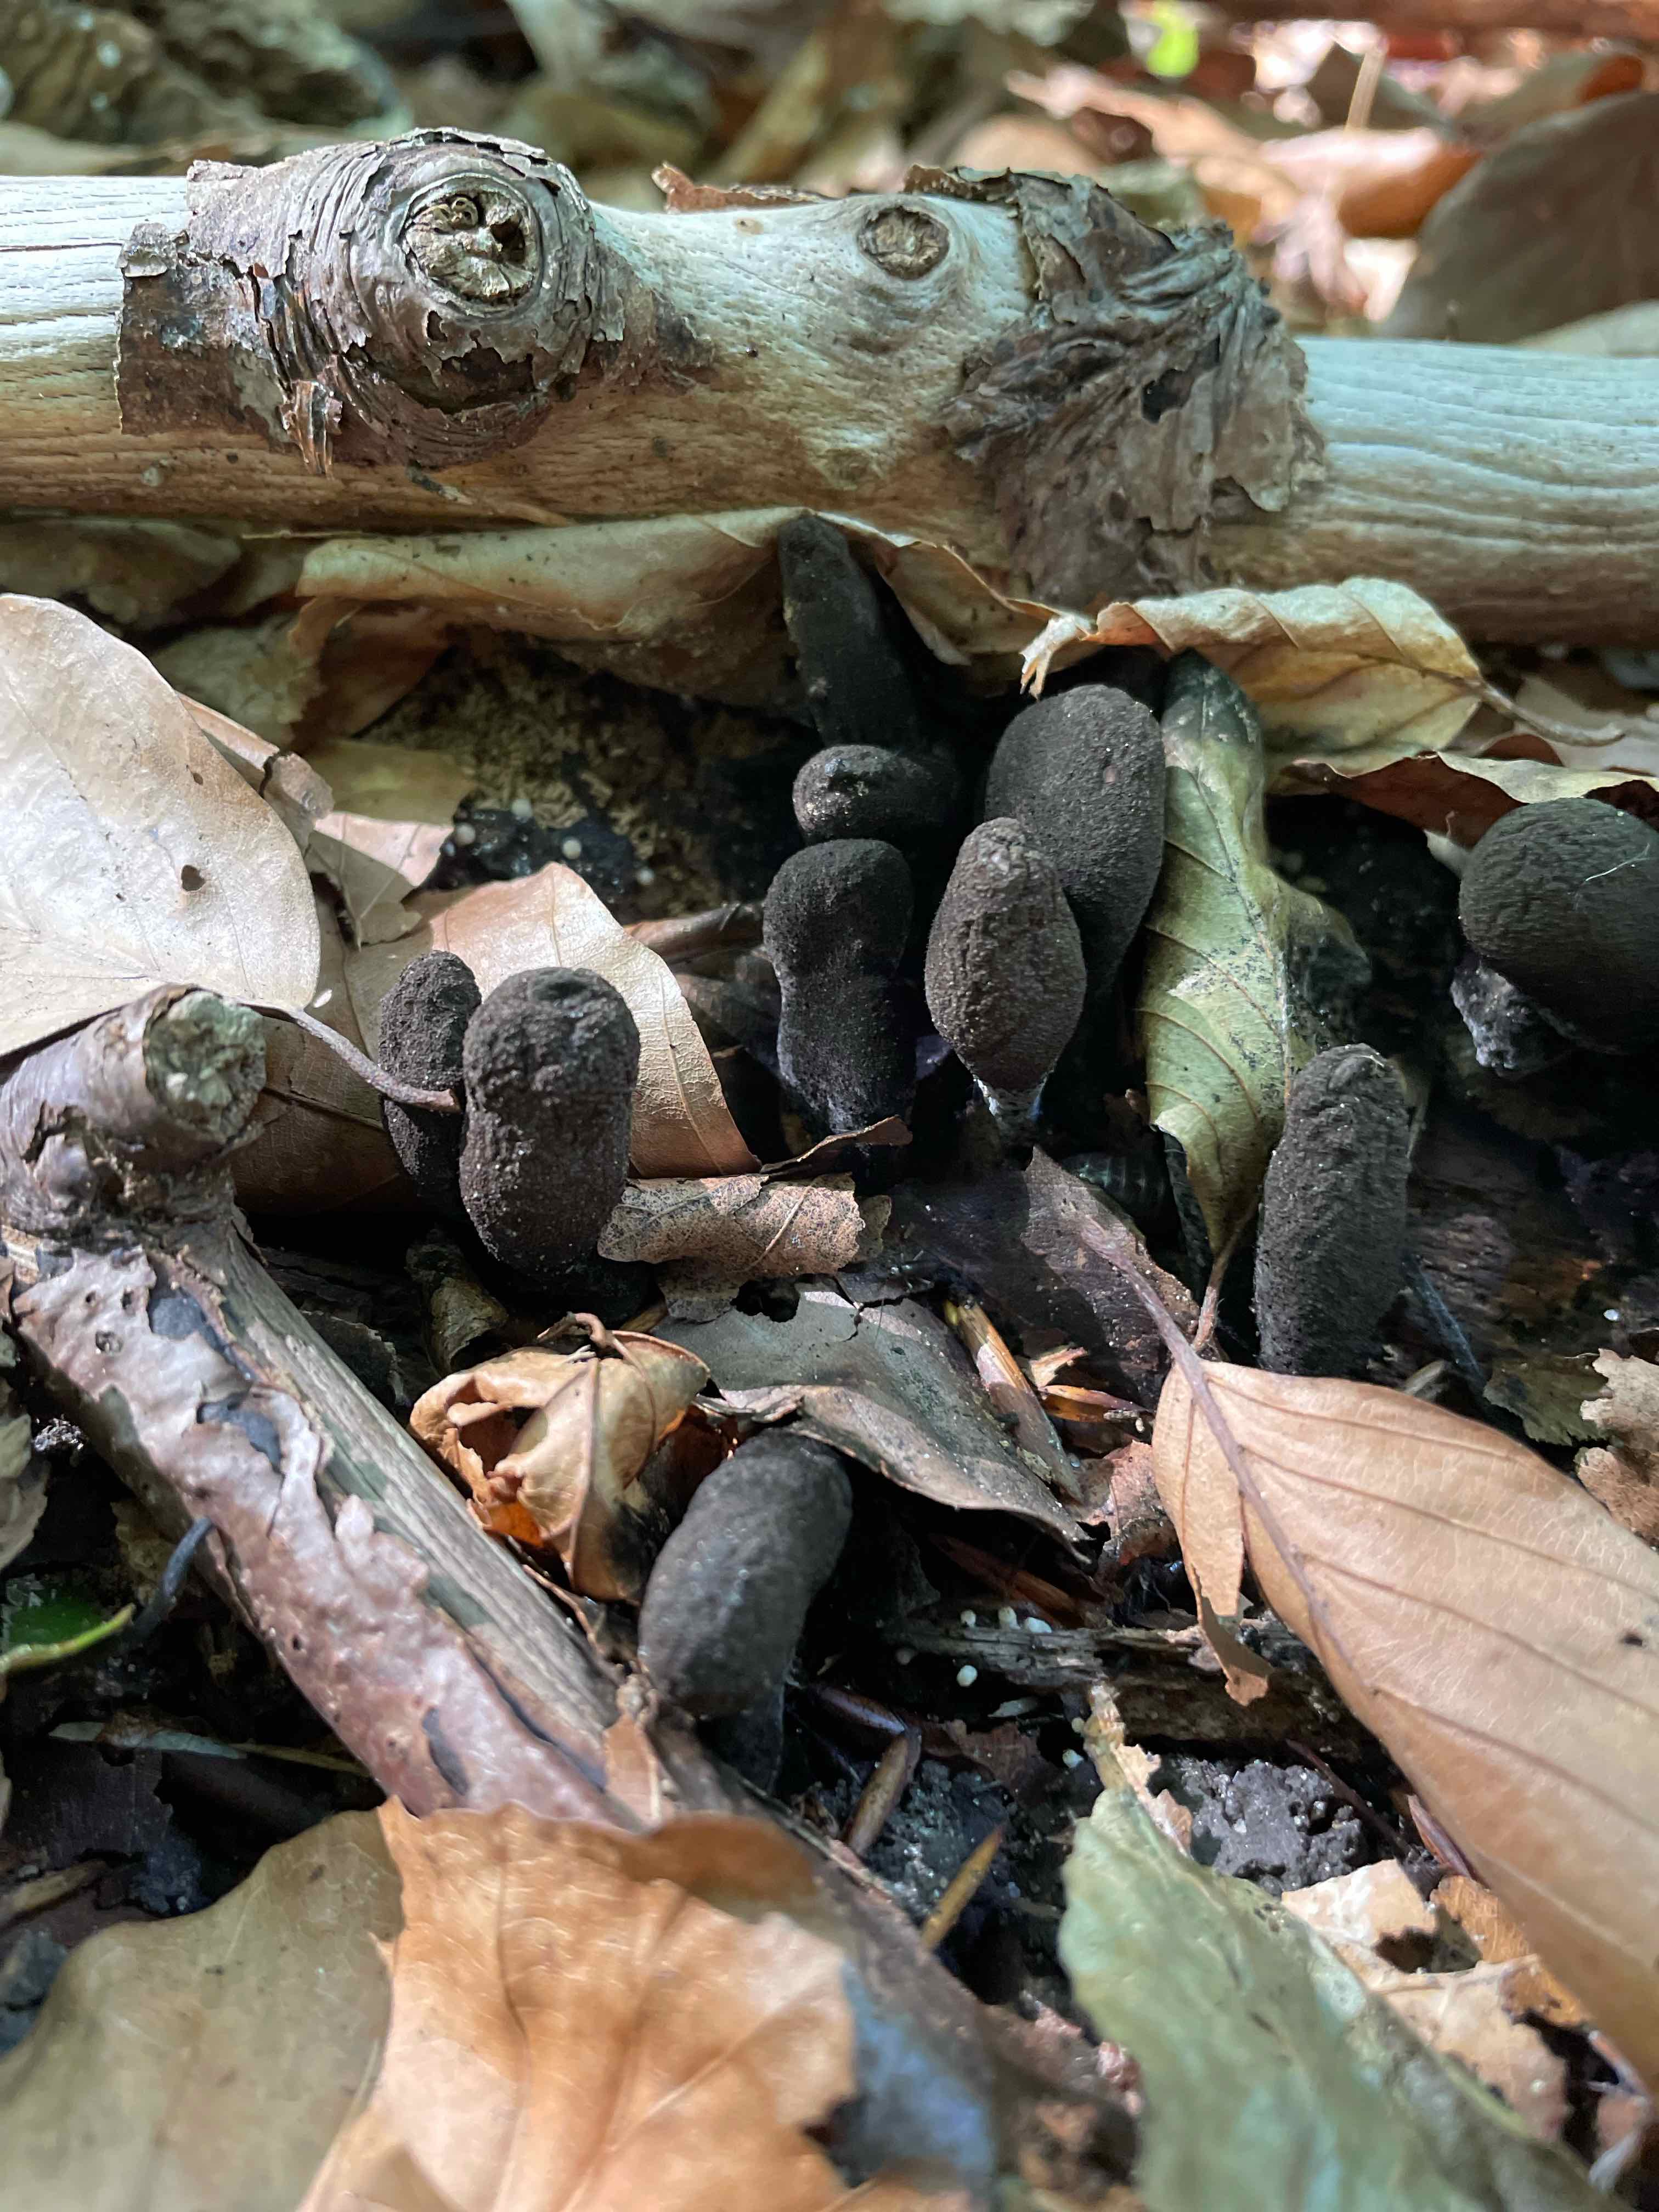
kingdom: Fungi
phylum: Ascomycota
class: Sordariomycetes
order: Xylariales
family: Xylariaceae
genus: Xylaria
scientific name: Xylaria polymorpha
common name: kølle-stødsvamp
